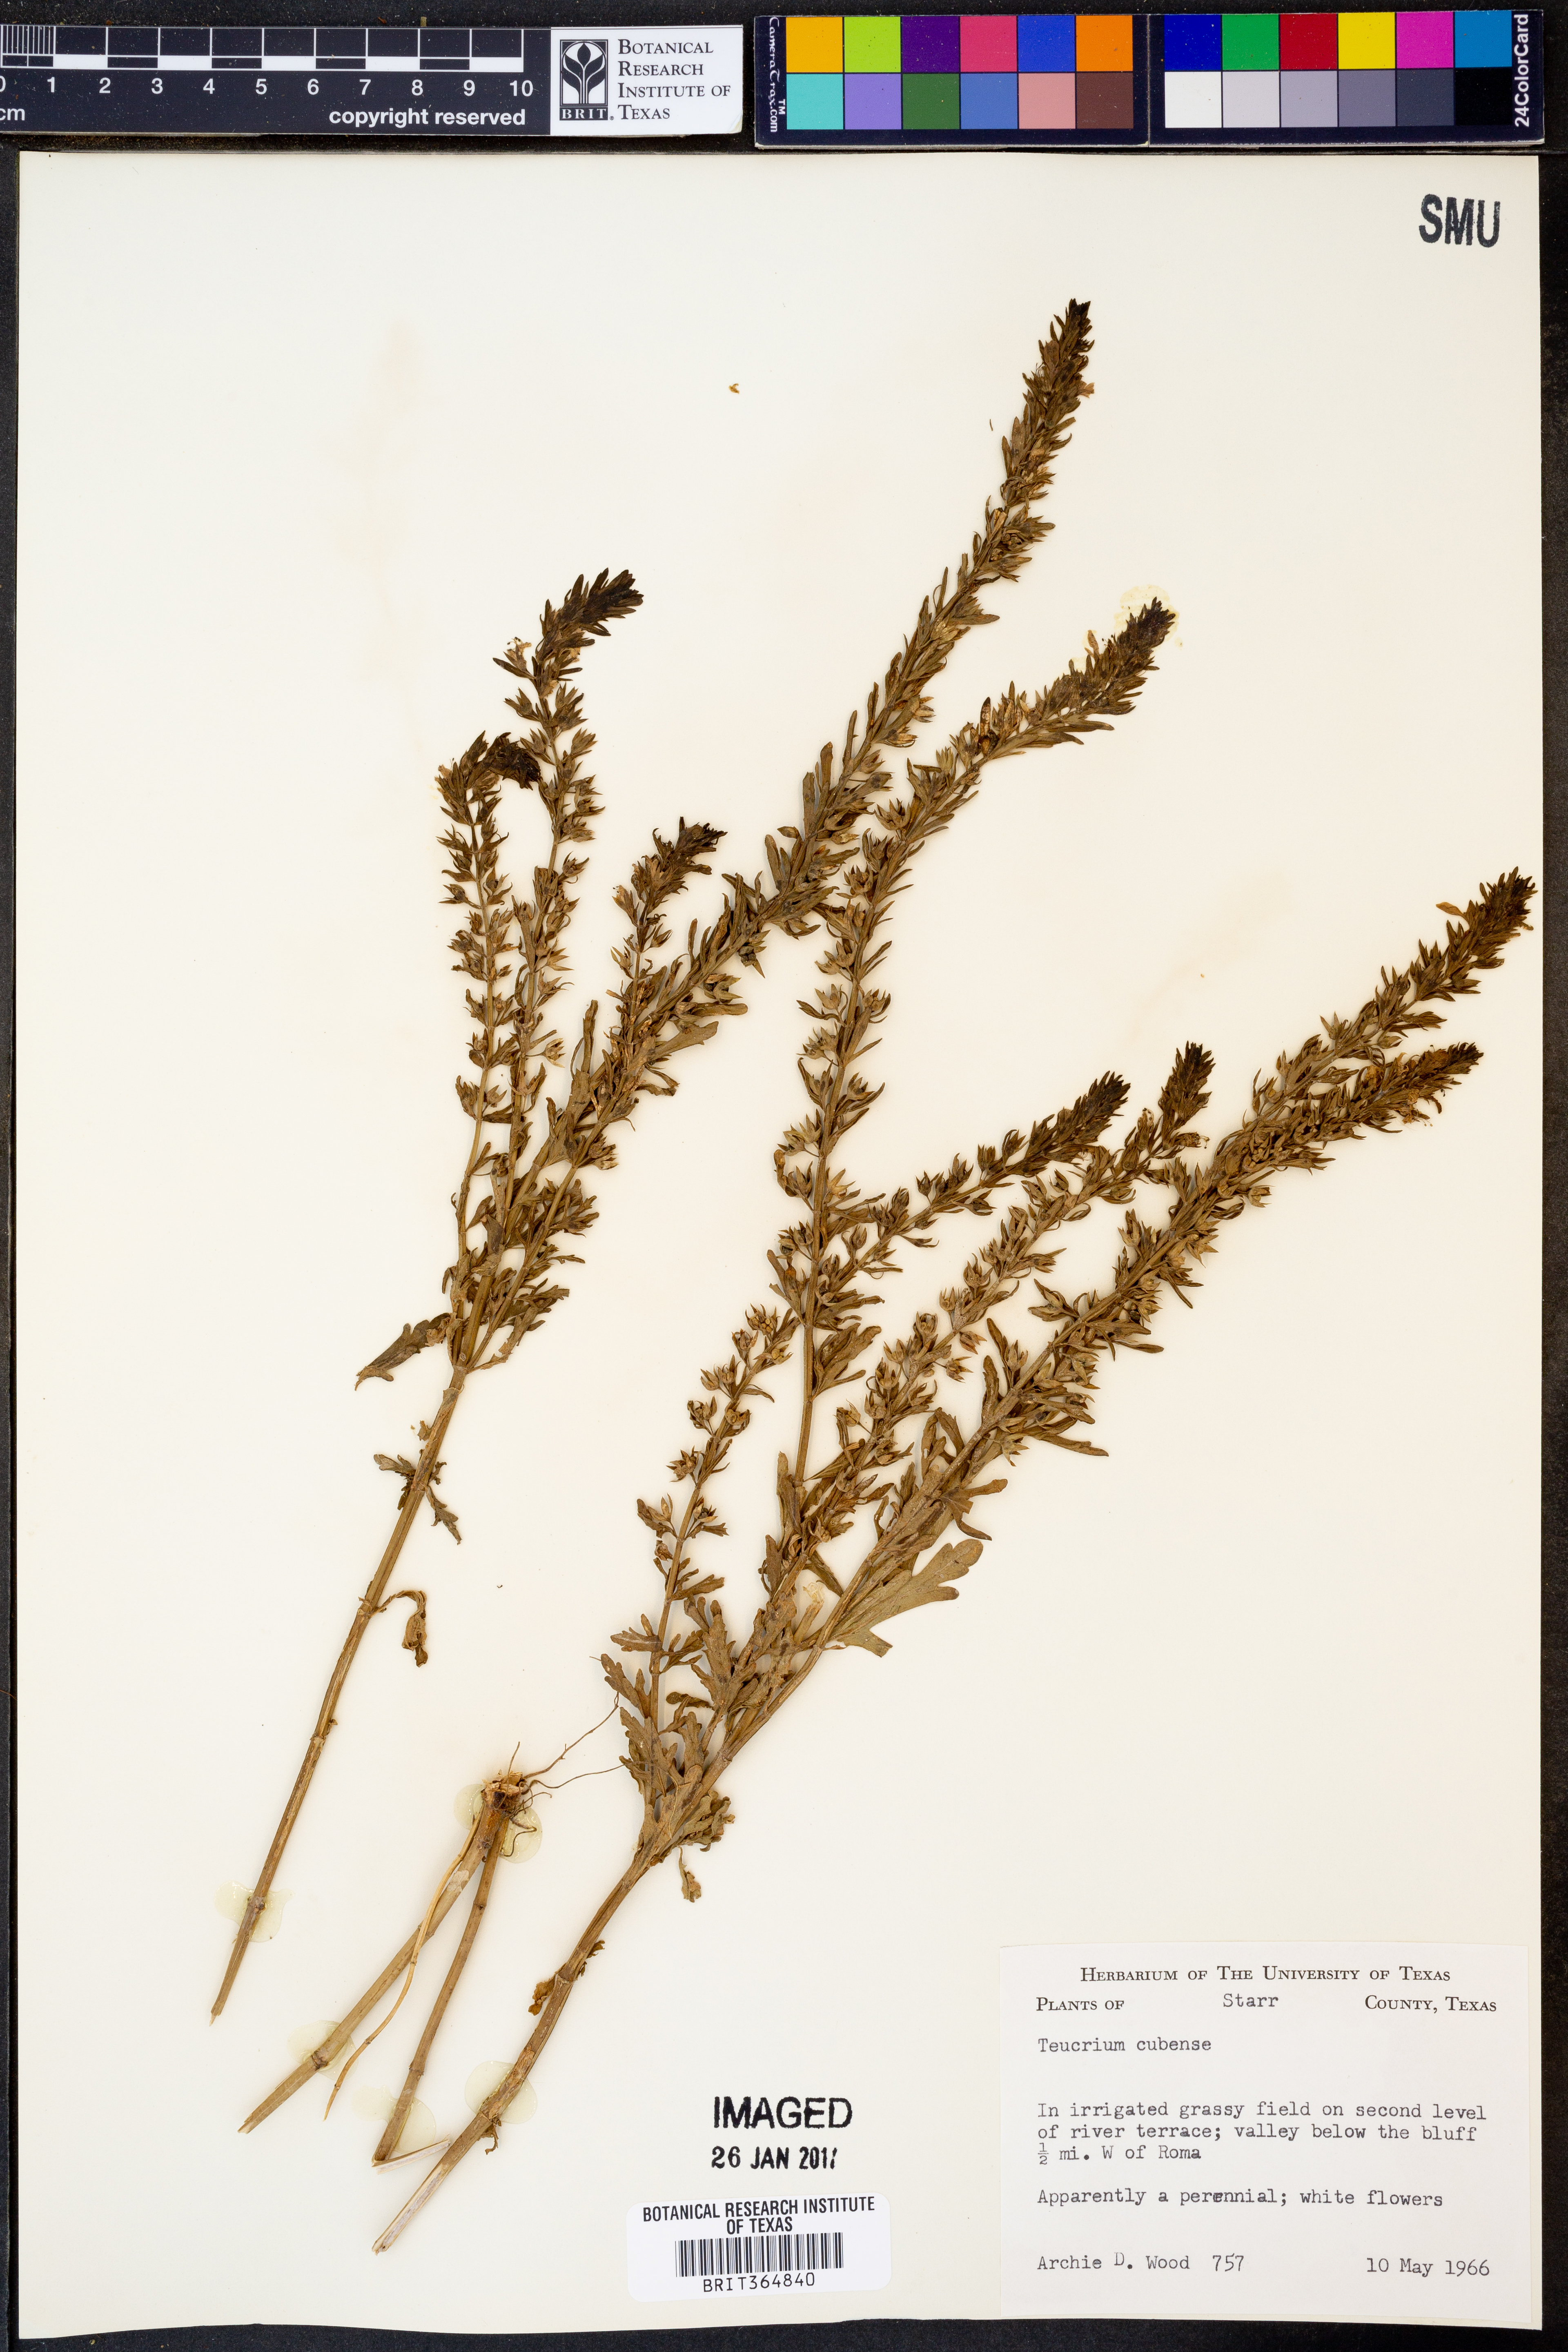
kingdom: Plantae
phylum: Tracheophyta
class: Magnoliopsida
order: Lamiales
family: Lamiaceae
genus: Teucrium
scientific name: Teucrium cubense
